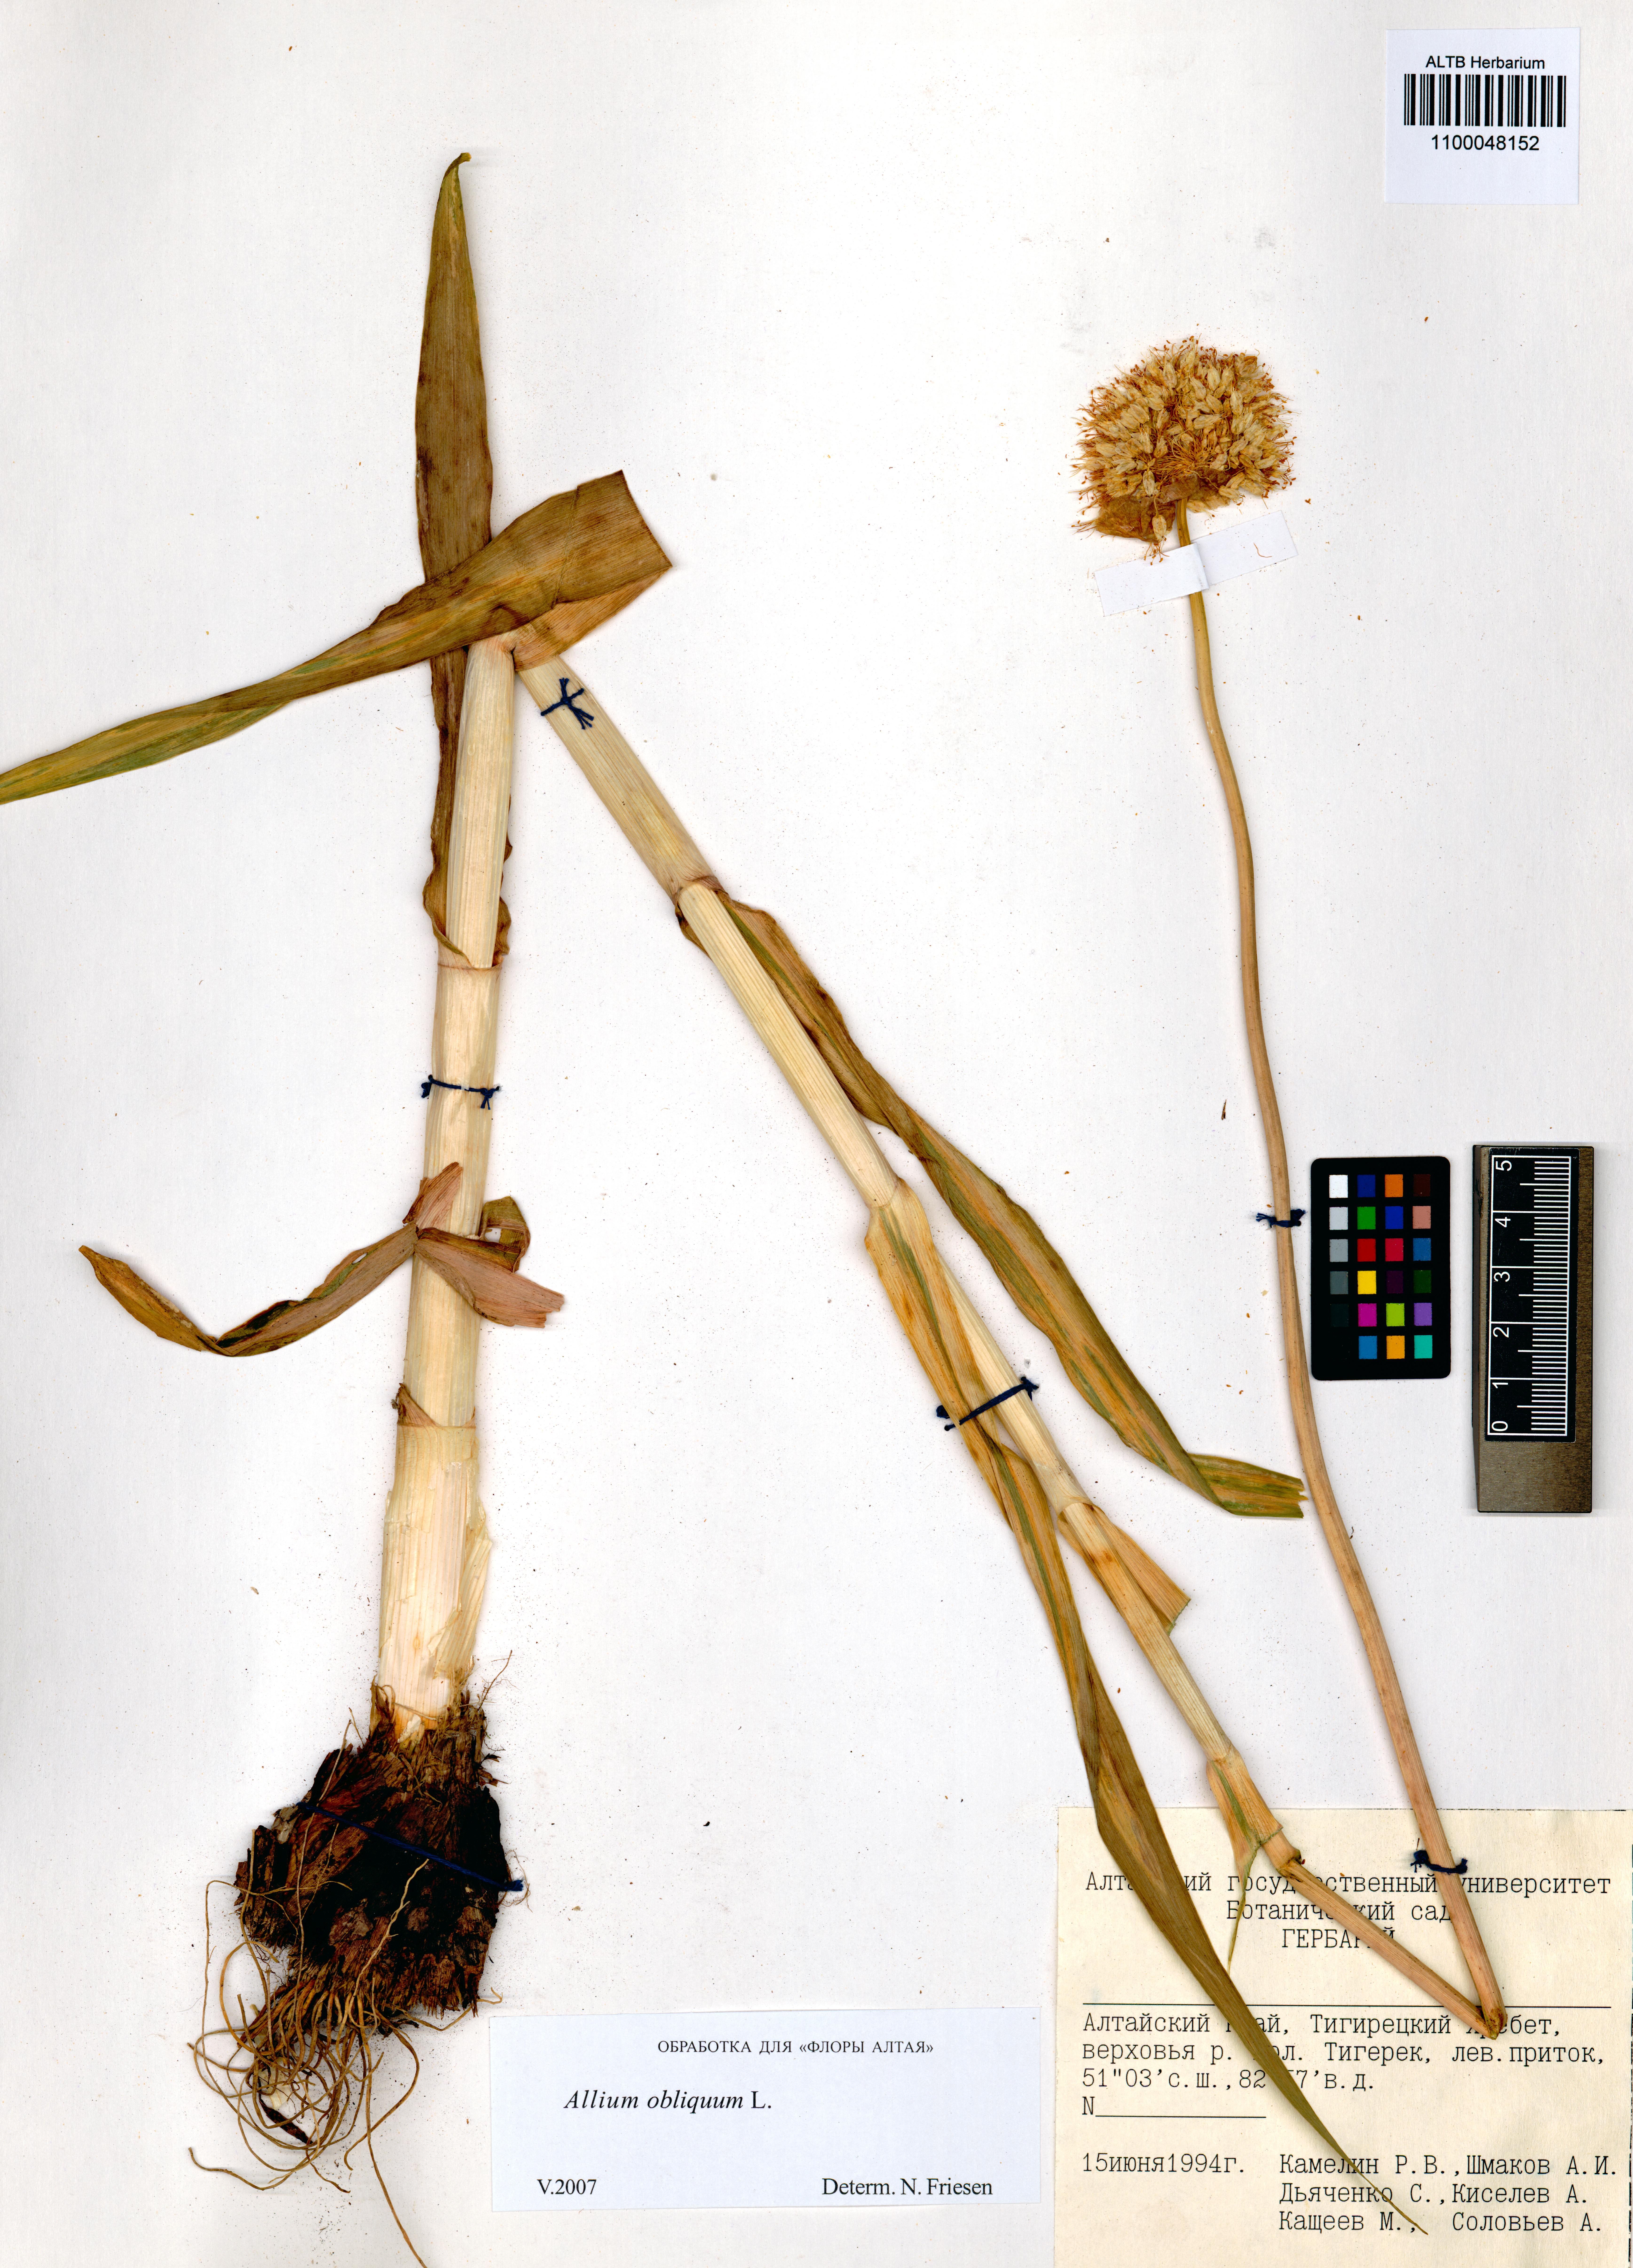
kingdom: Plantae
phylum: Tracheophyta
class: Liliopsida
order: Asparagales
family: Amaryllidaceae
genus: Allium
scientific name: Allium obliquum
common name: Oblique onion
